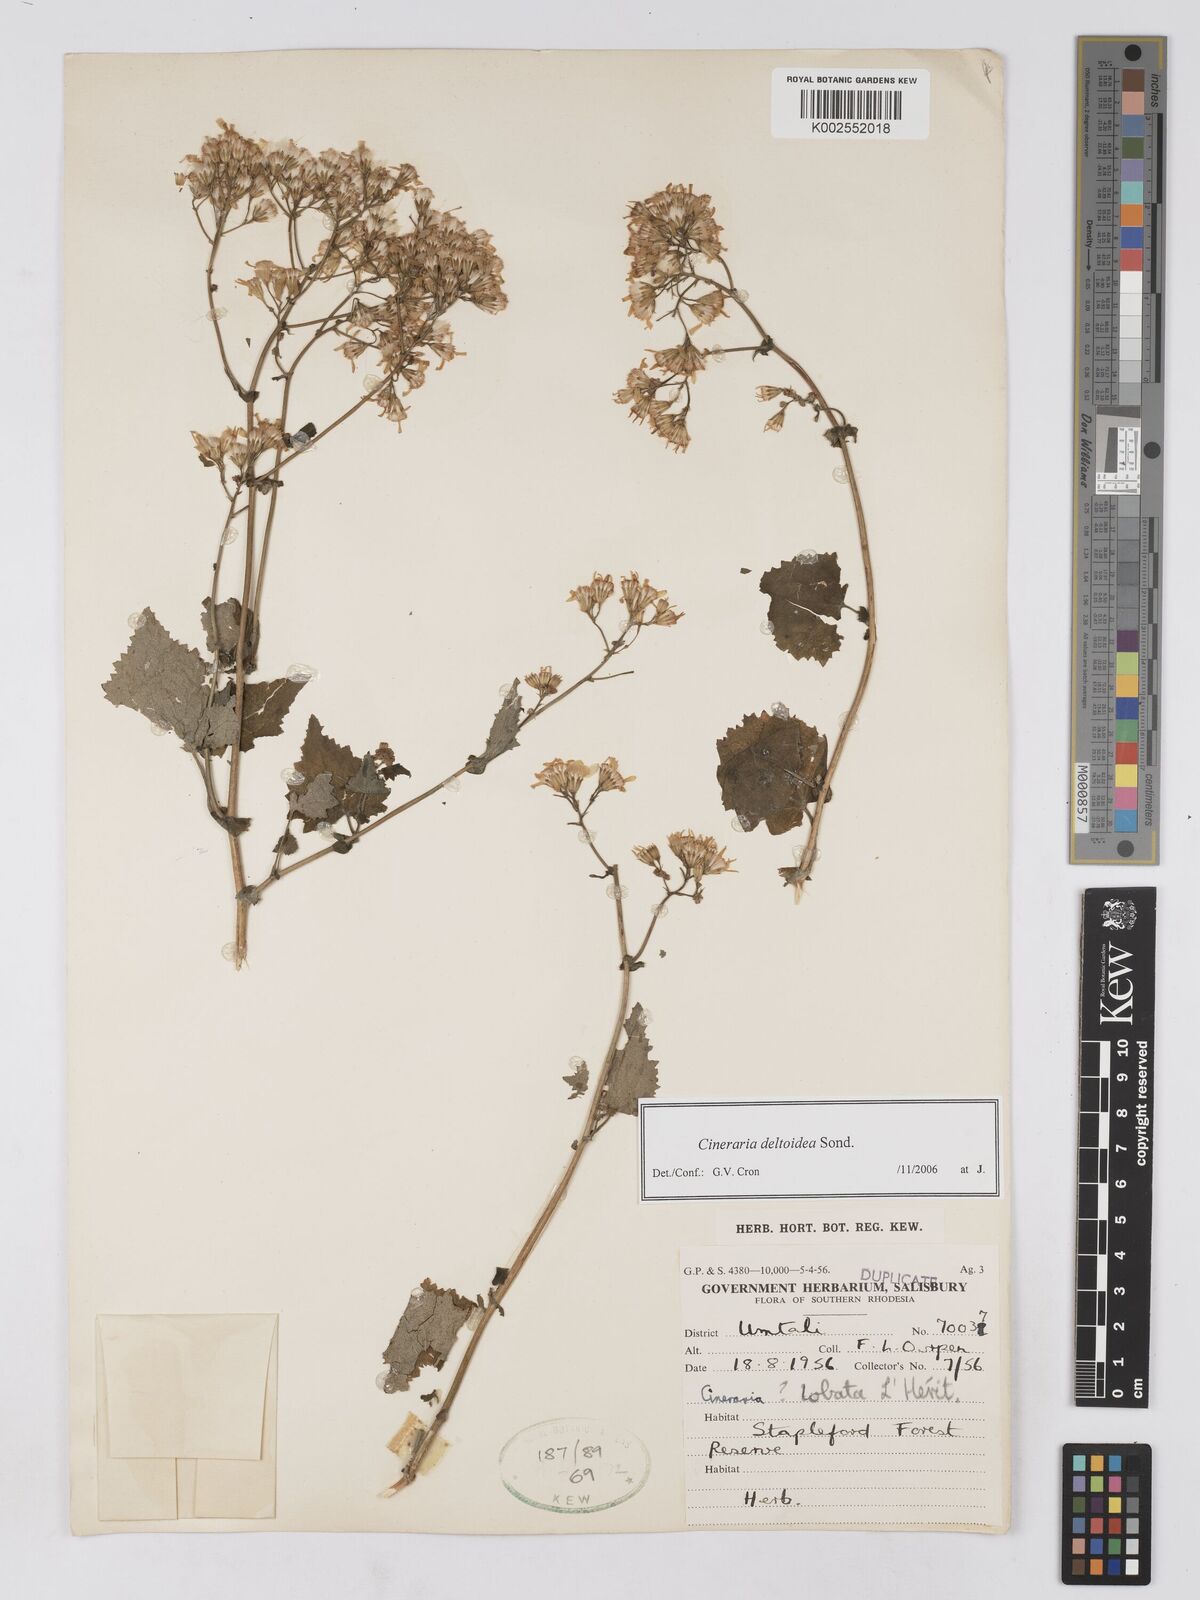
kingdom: Plantae
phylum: Tracheophyta
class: Magnoliopsida
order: Asterales
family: Asteraceae
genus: Cineraria
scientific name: Cineraria deltoidea
